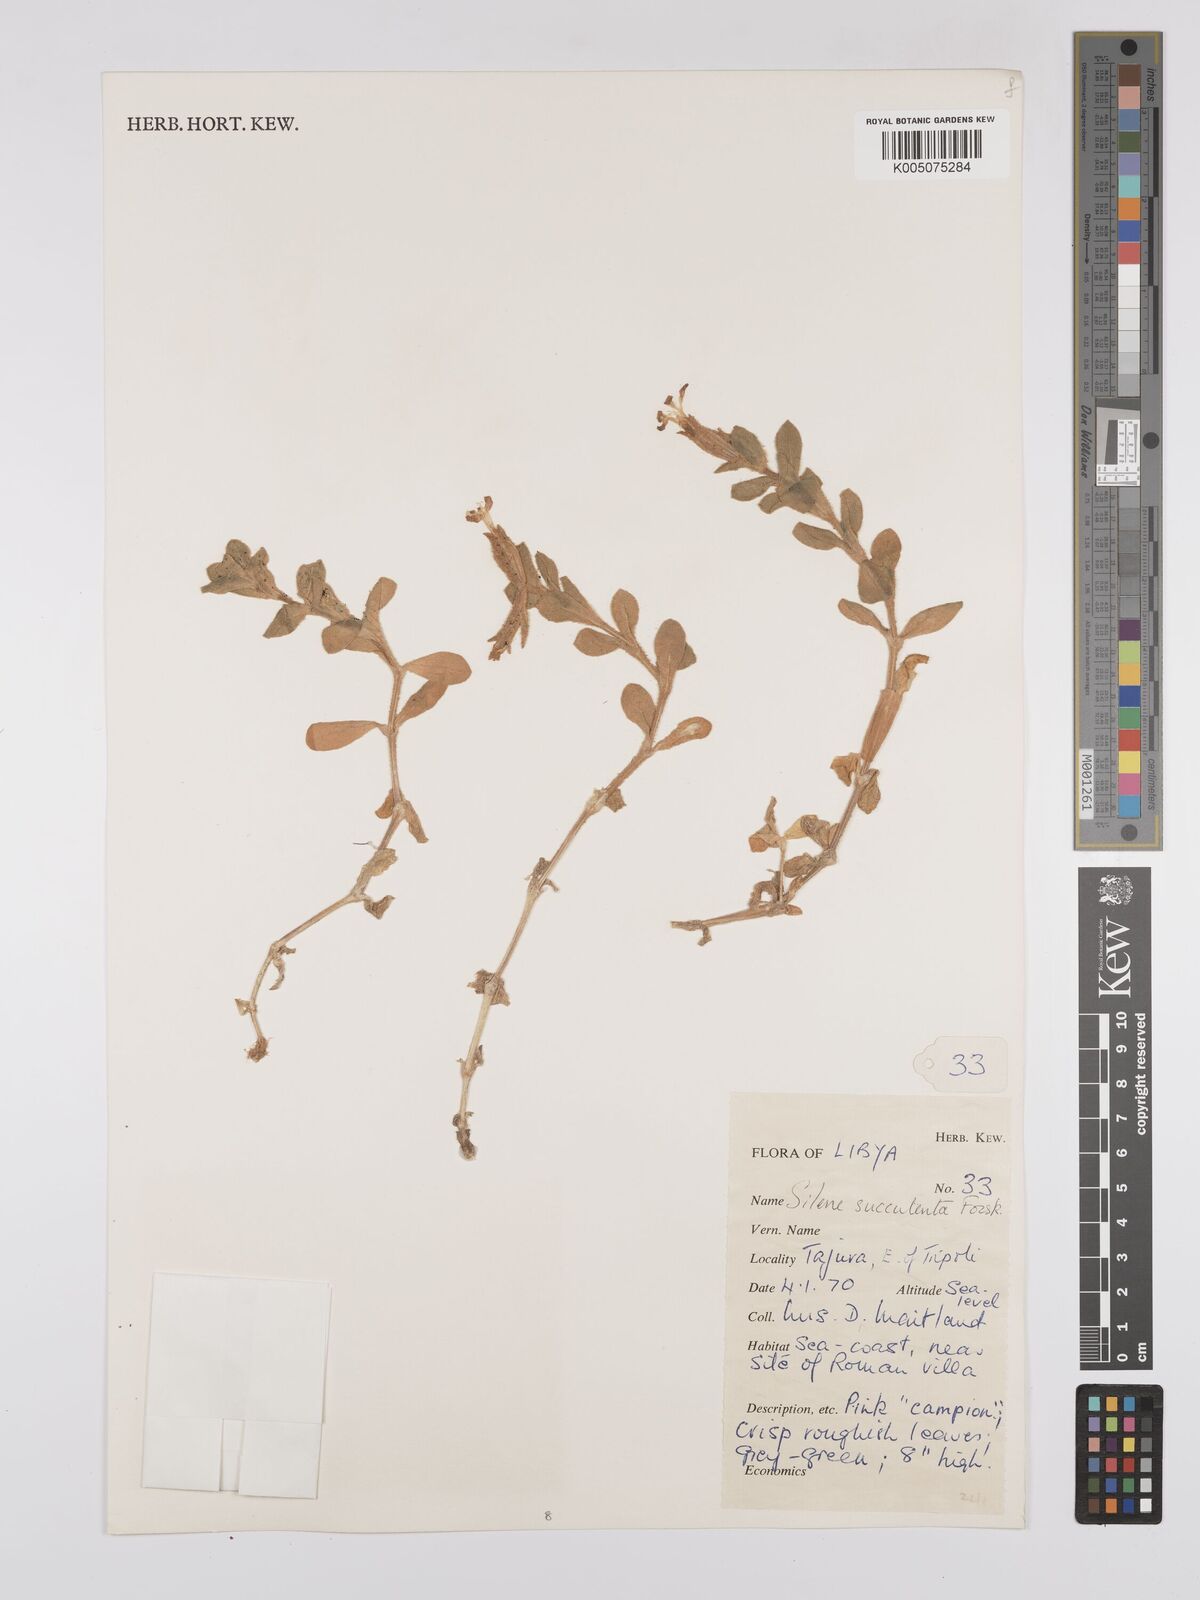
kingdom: Plantae
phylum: Tracheophyta
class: Magnoliopsida
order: Caryophyllales
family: Caryophyllaceae
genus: Silene
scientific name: Silene succulenta
